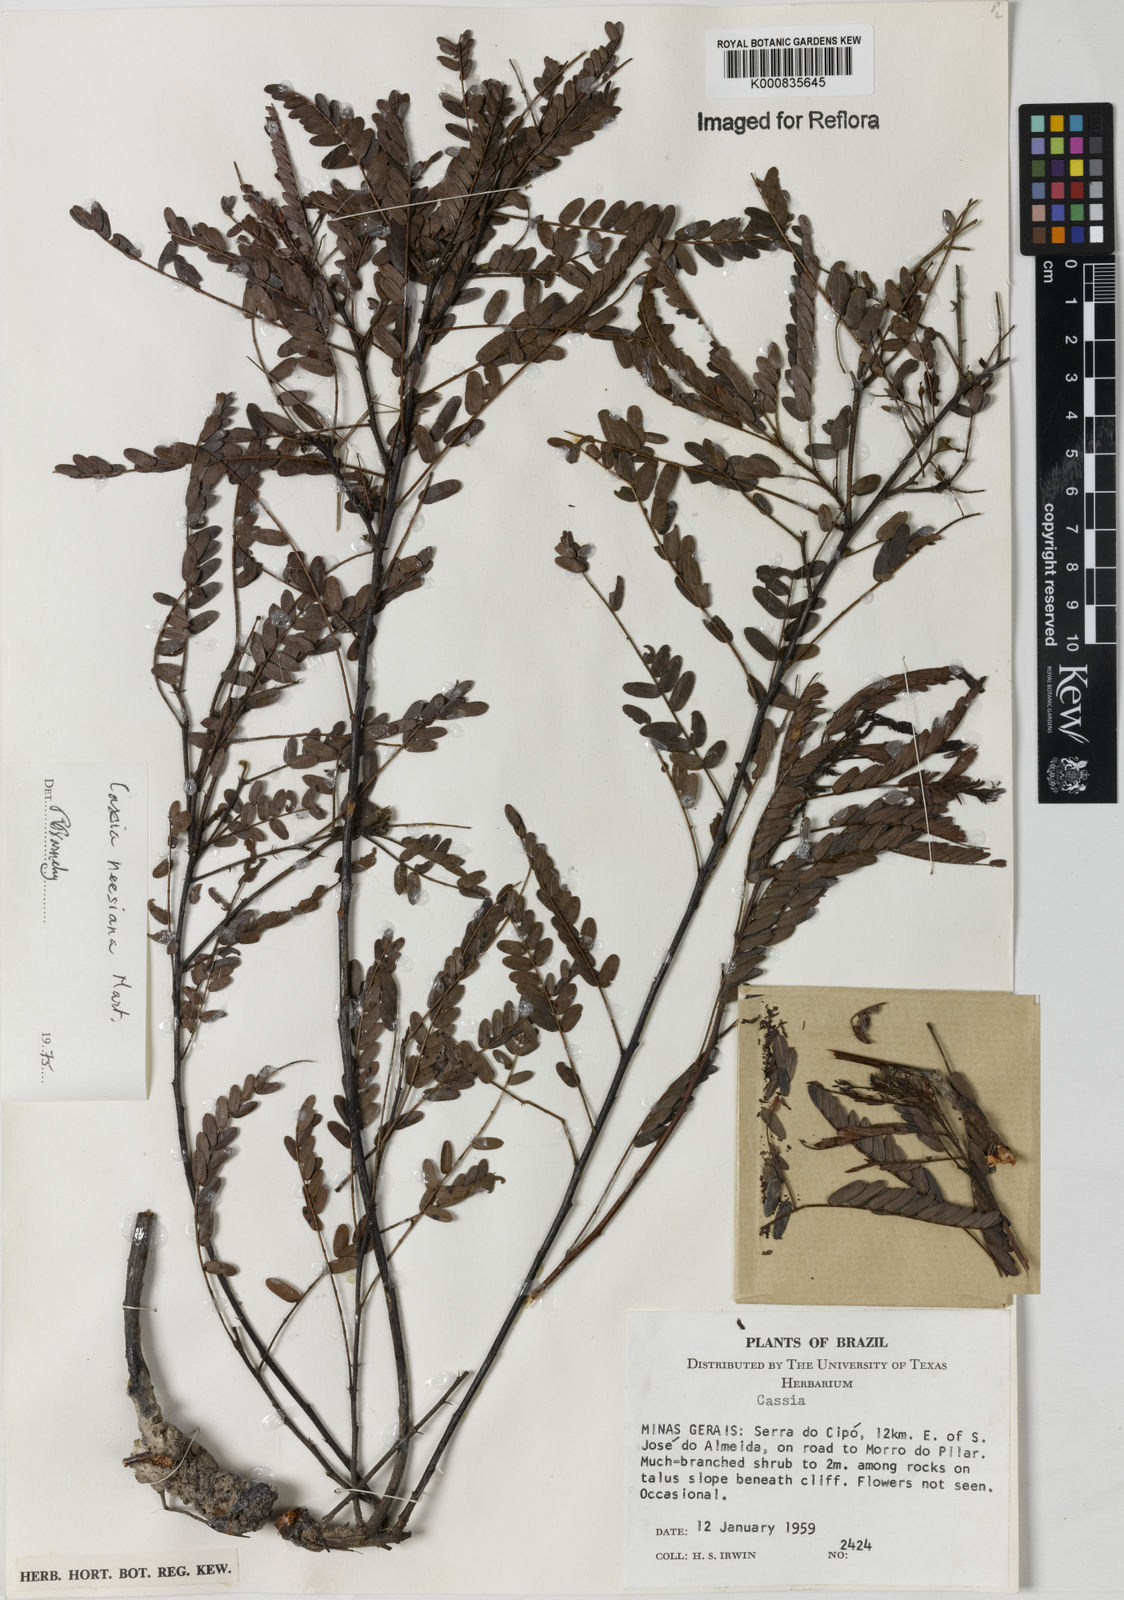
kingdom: Plantae
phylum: Tracheophyta
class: Magnoliopsida
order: Fabales
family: Fabaceae
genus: Chamaecrista
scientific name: Chamaecrista neesiana
